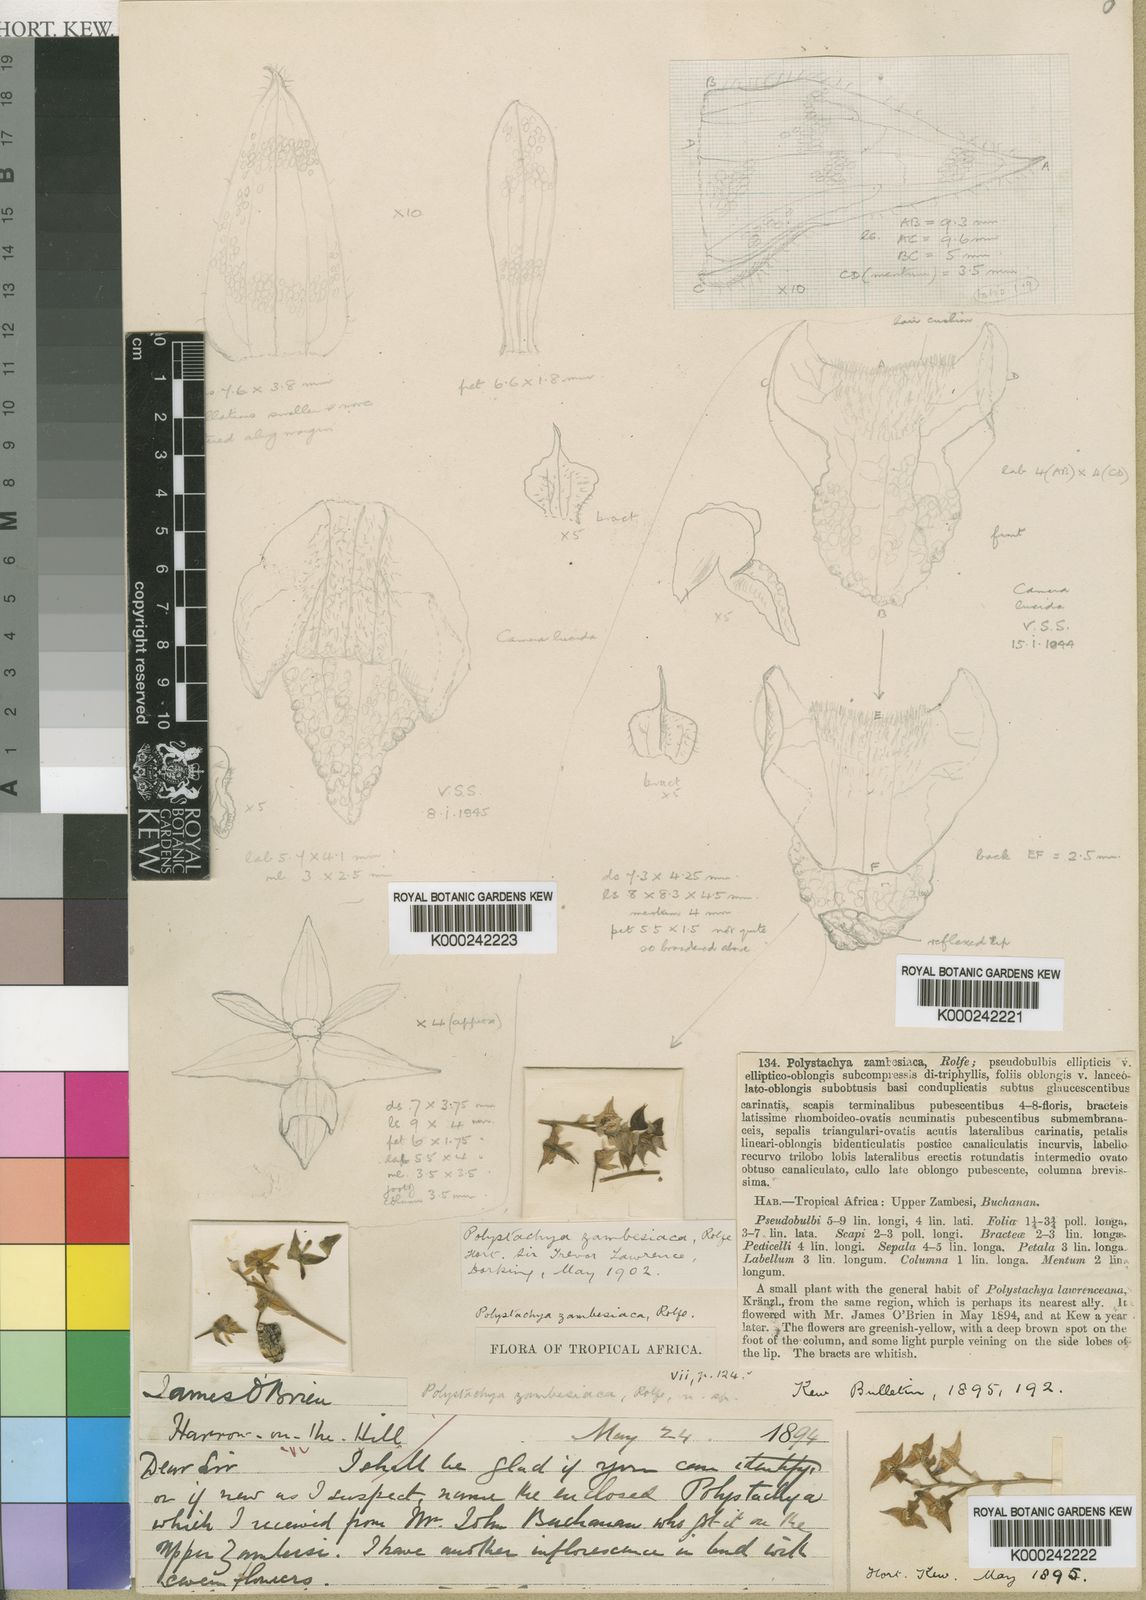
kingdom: Plantae
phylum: Tracheophyta
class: Liliopsida
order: Asparagales
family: Orchidaceae
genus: Polystachya
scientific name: Polystachya zambesiaca
